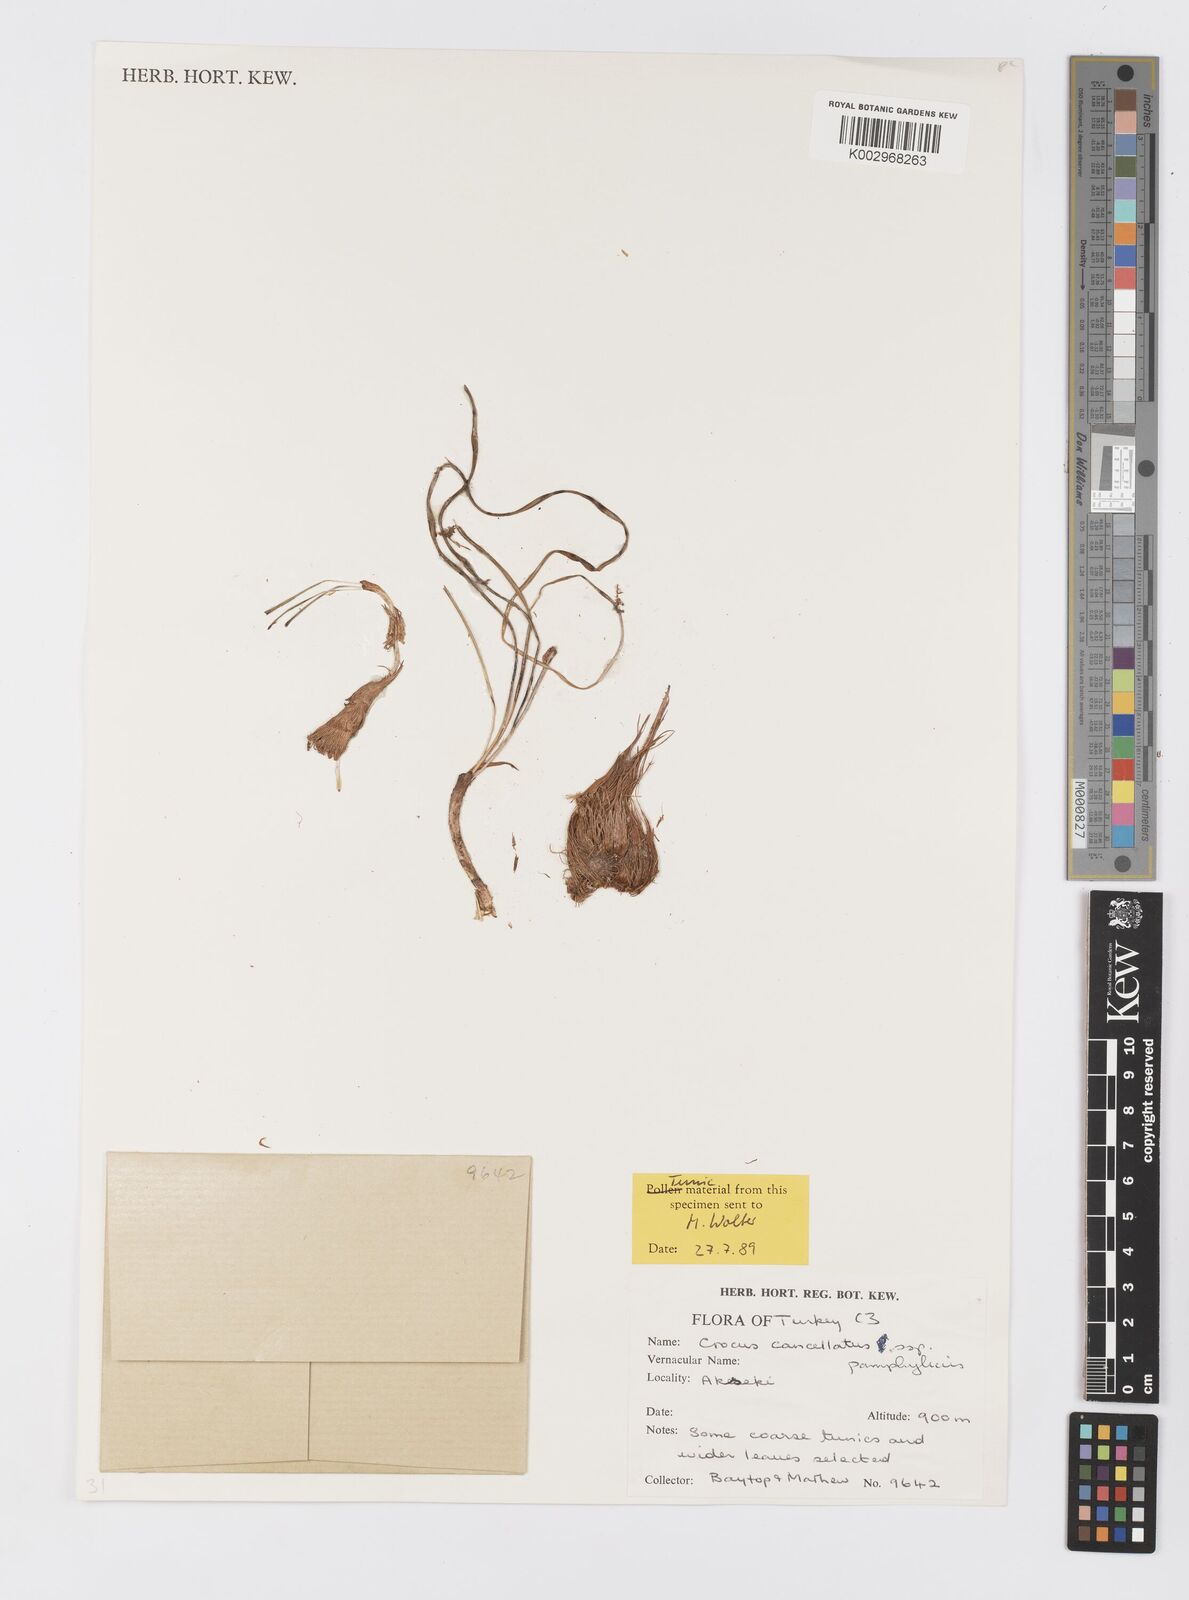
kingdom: Plantae
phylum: Tracheophyta
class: Liliopsida
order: Asparagales
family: Iridaceae
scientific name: Iridaceae
